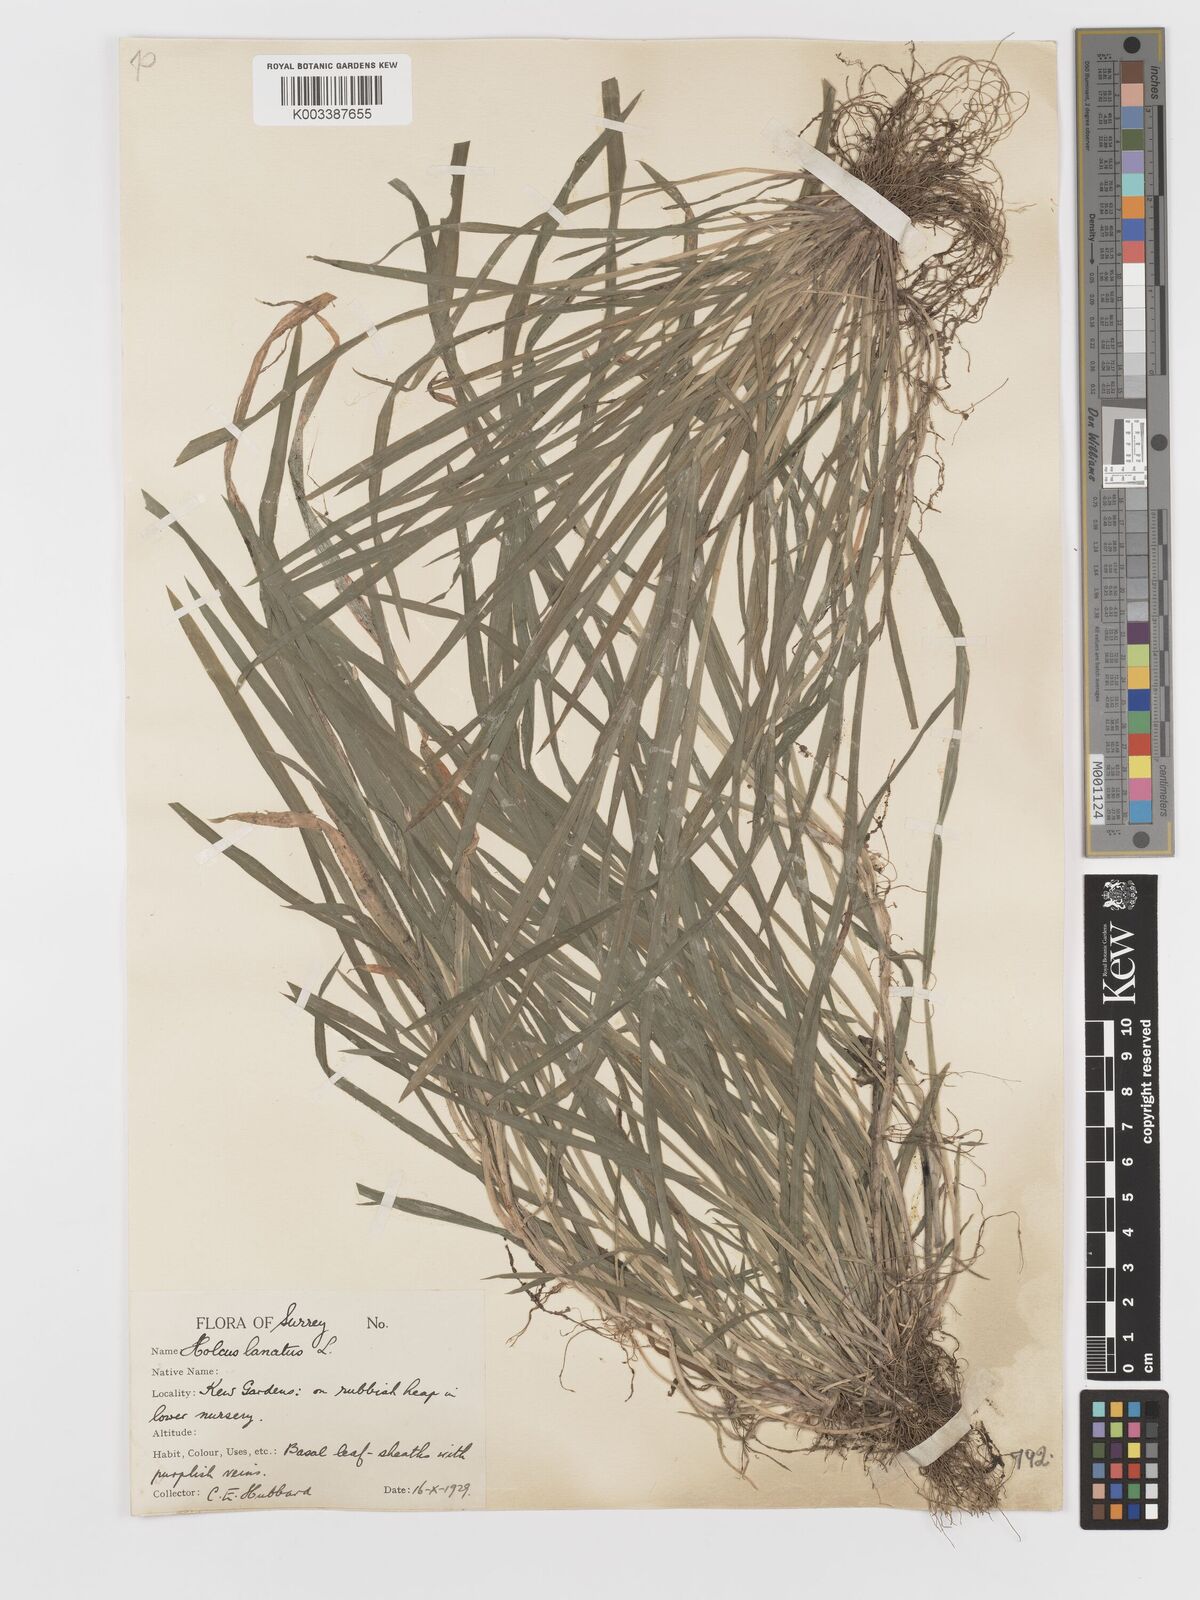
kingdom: Plantae
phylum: Tracheophyta
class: Liliopsida
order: Poales
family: Poaceae
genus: Holcus
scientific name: Holcus lanatus
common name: Yorkshire-fog
